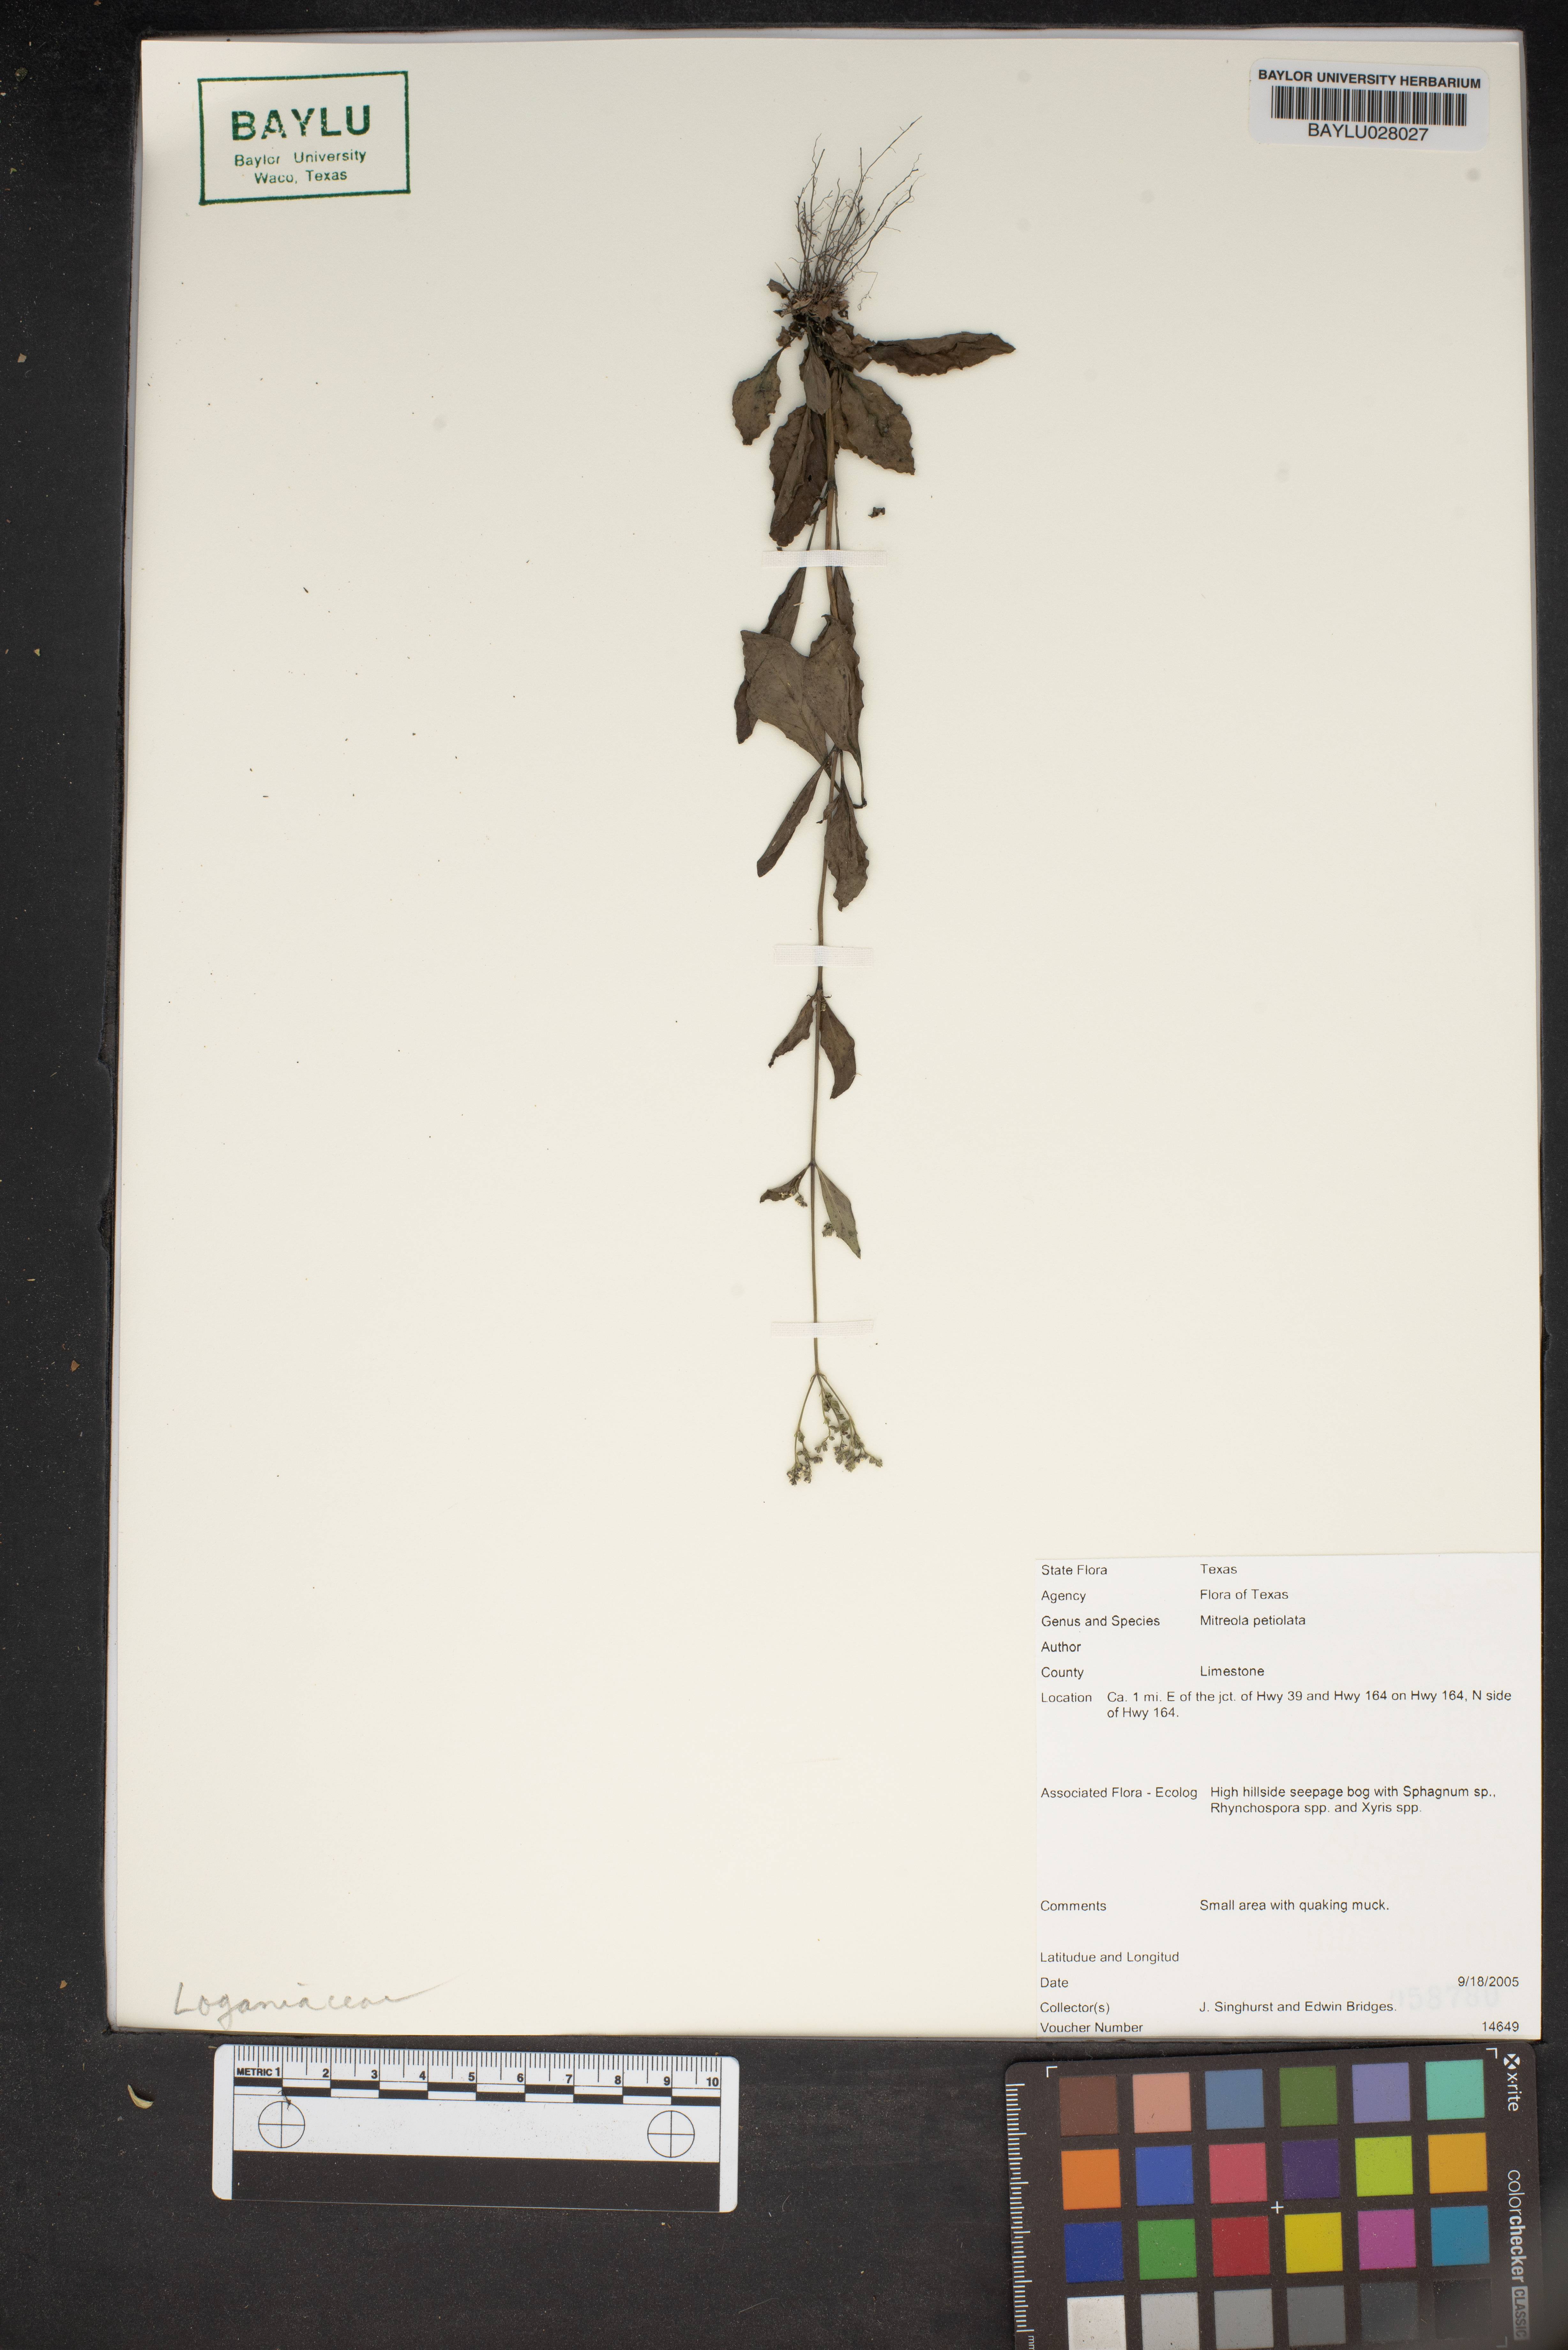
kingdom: Plantae
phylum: Tracheophyta
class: Magnoliopsida
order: Gentianales
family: Loganiaceae
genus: Mitreola
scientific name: Mitreola petiolata
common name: Lax hornpod
